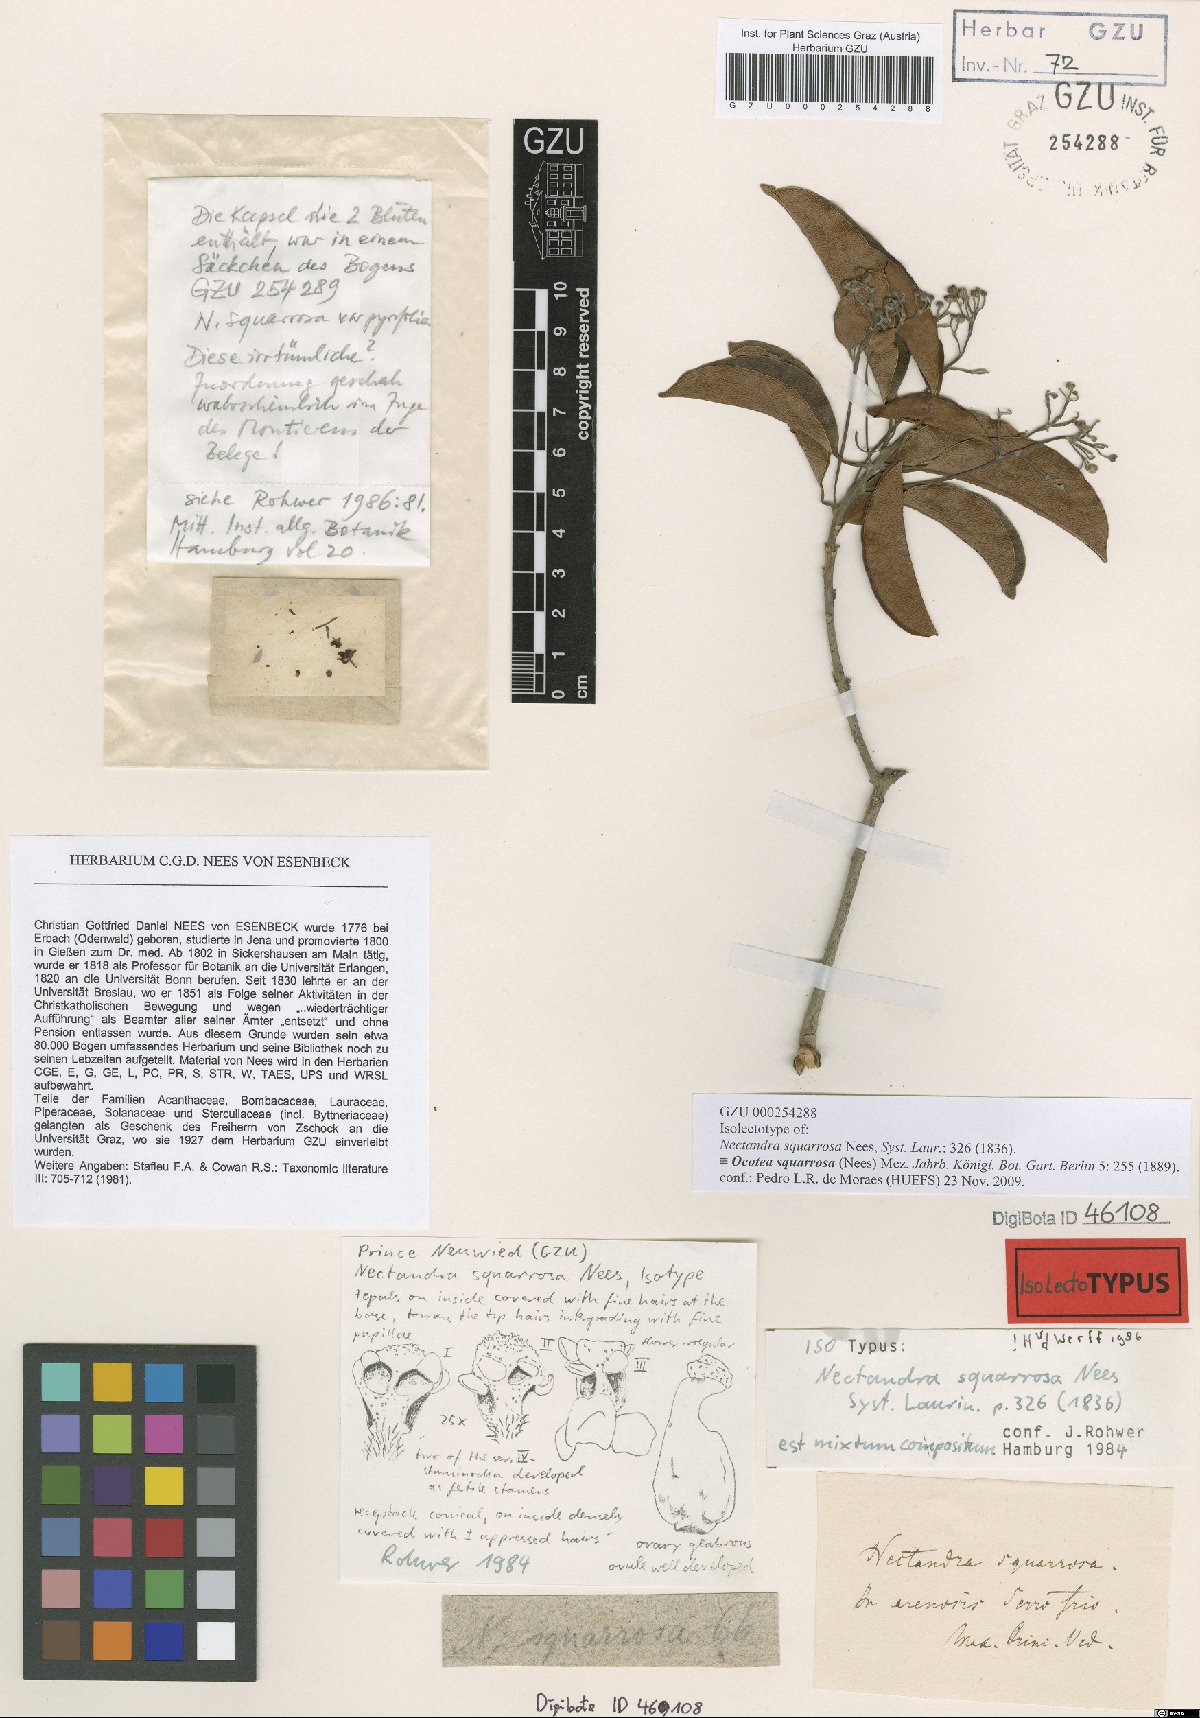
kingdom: Plantae
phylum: Tracheophyta
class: Magnoliopsida
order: Laurales
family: Lauraceae
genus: Ocotea
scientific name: Ocotea squarrosa
